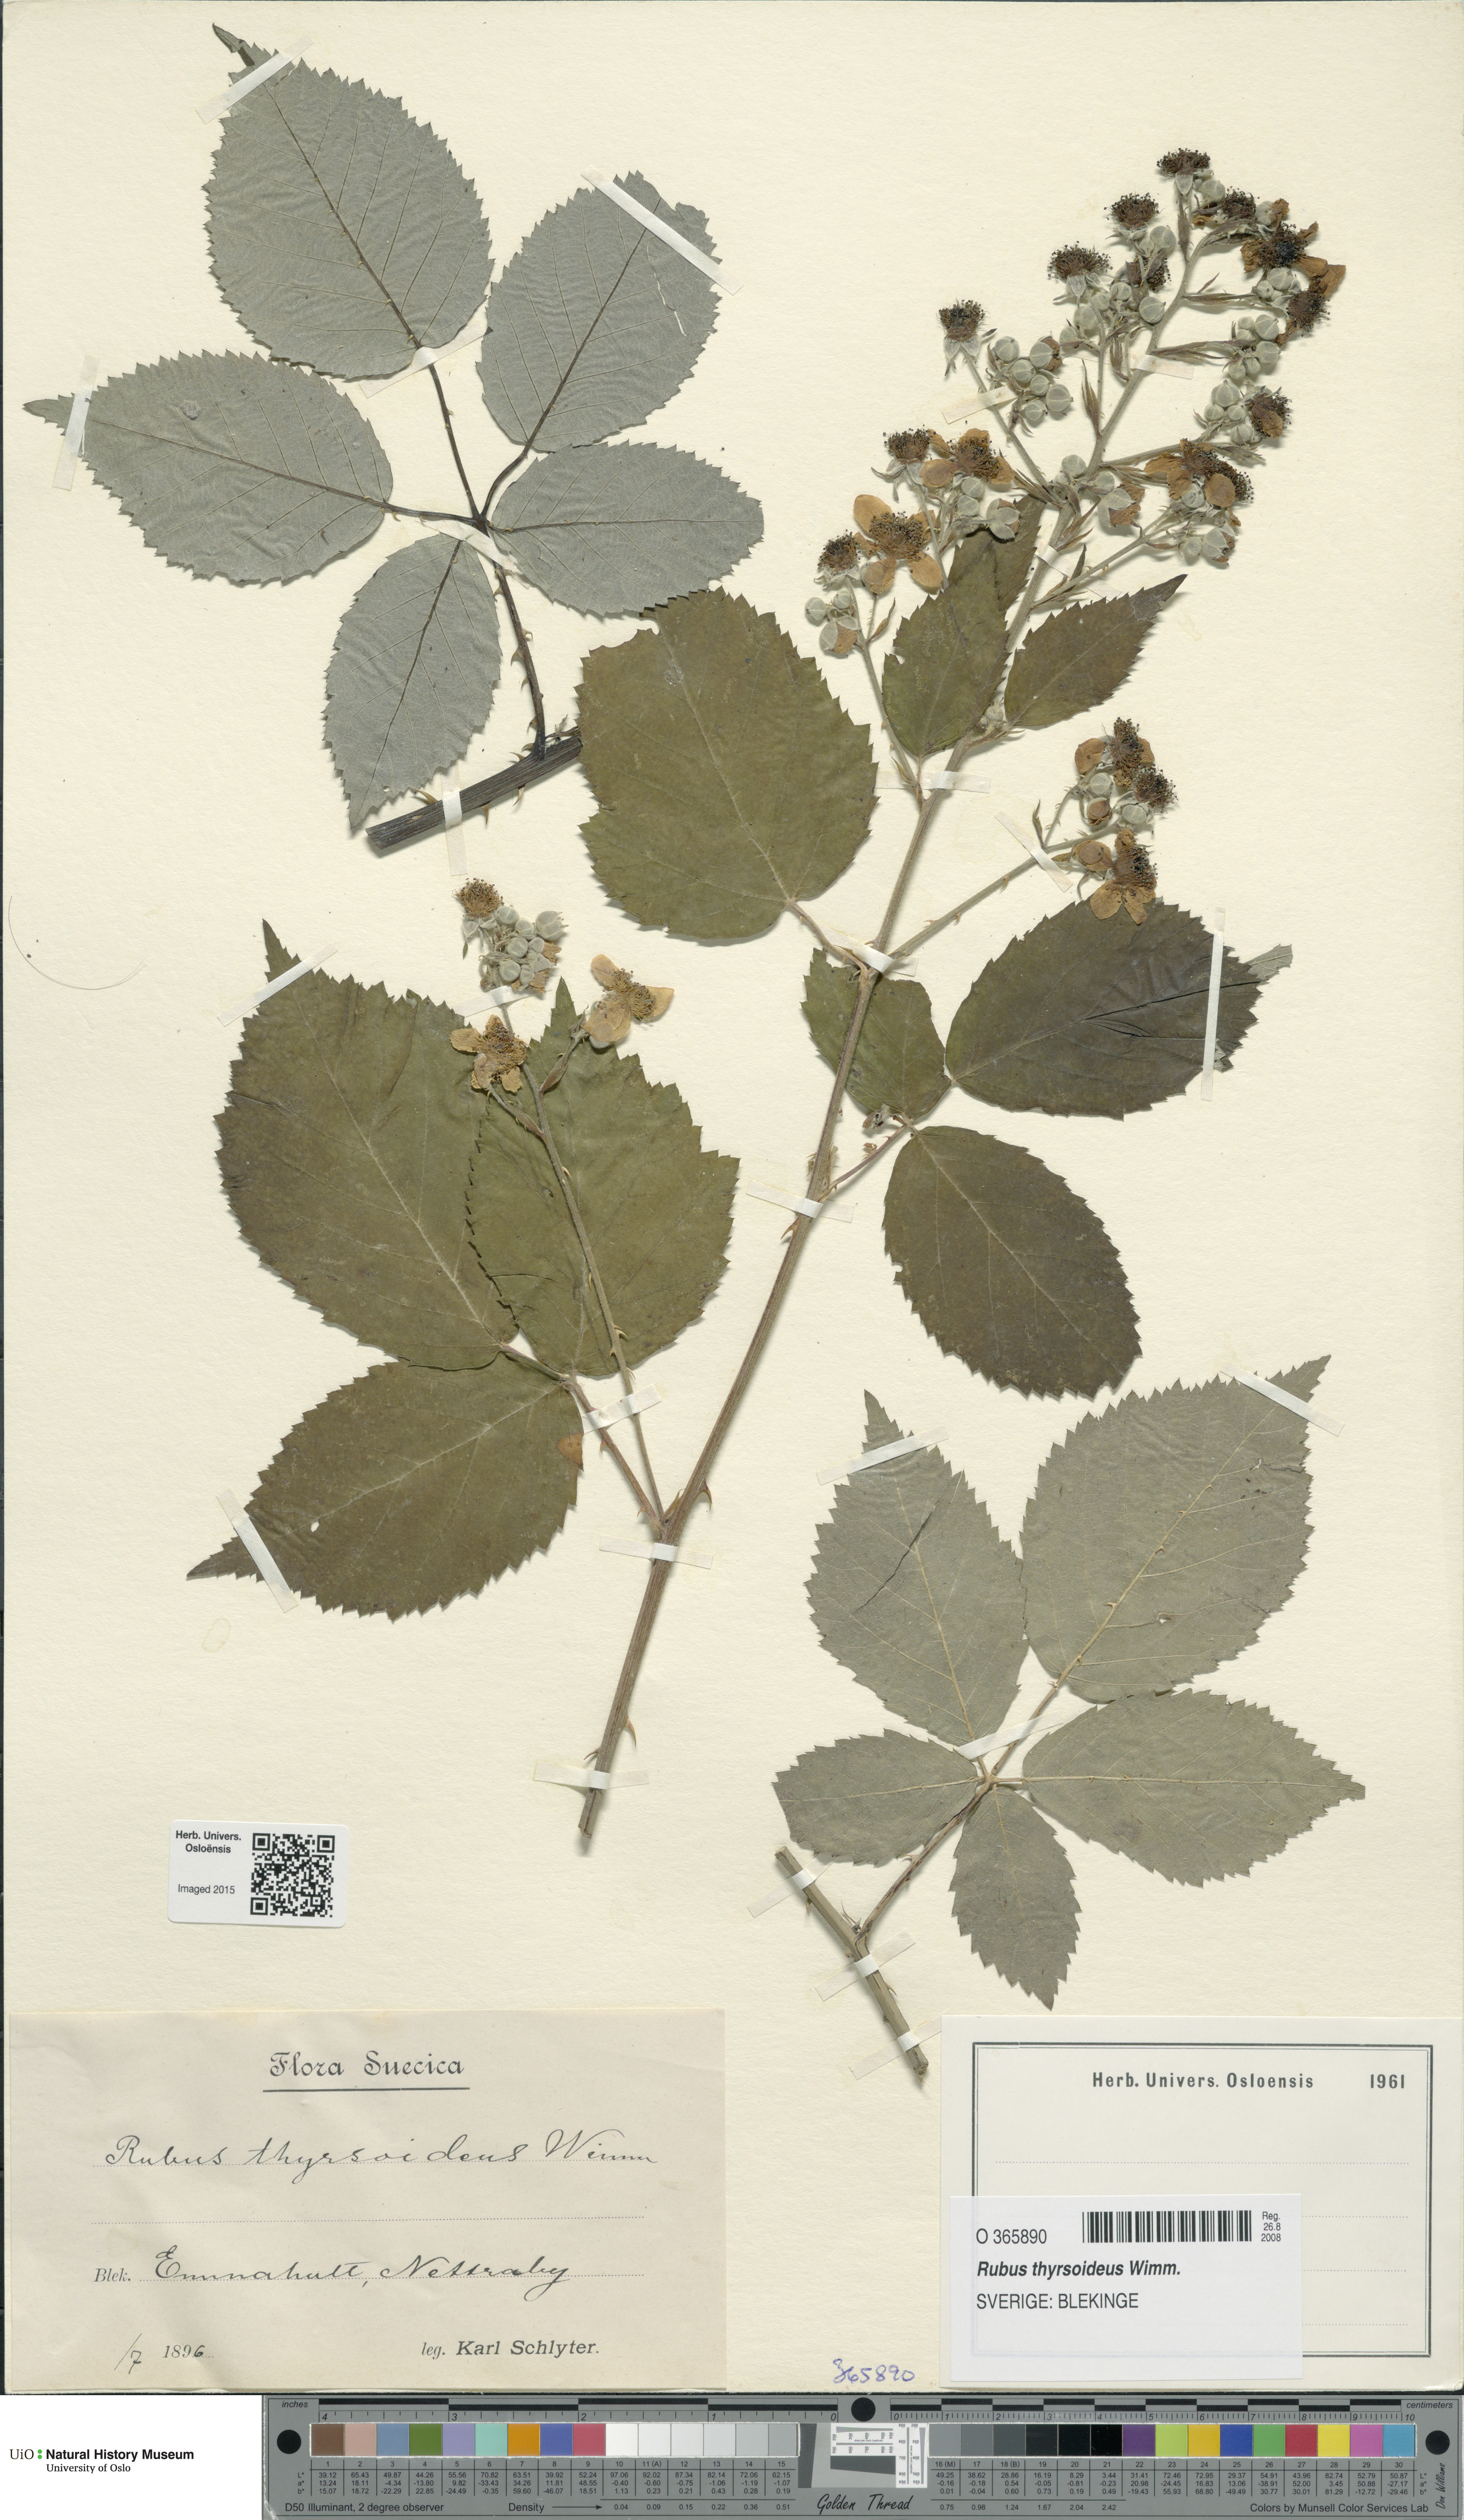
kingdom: Plantae
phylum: Tracheophyta
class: Magnoliopsida
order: Rosales
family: Rosaceae
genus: Rubus
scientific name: Rubus
